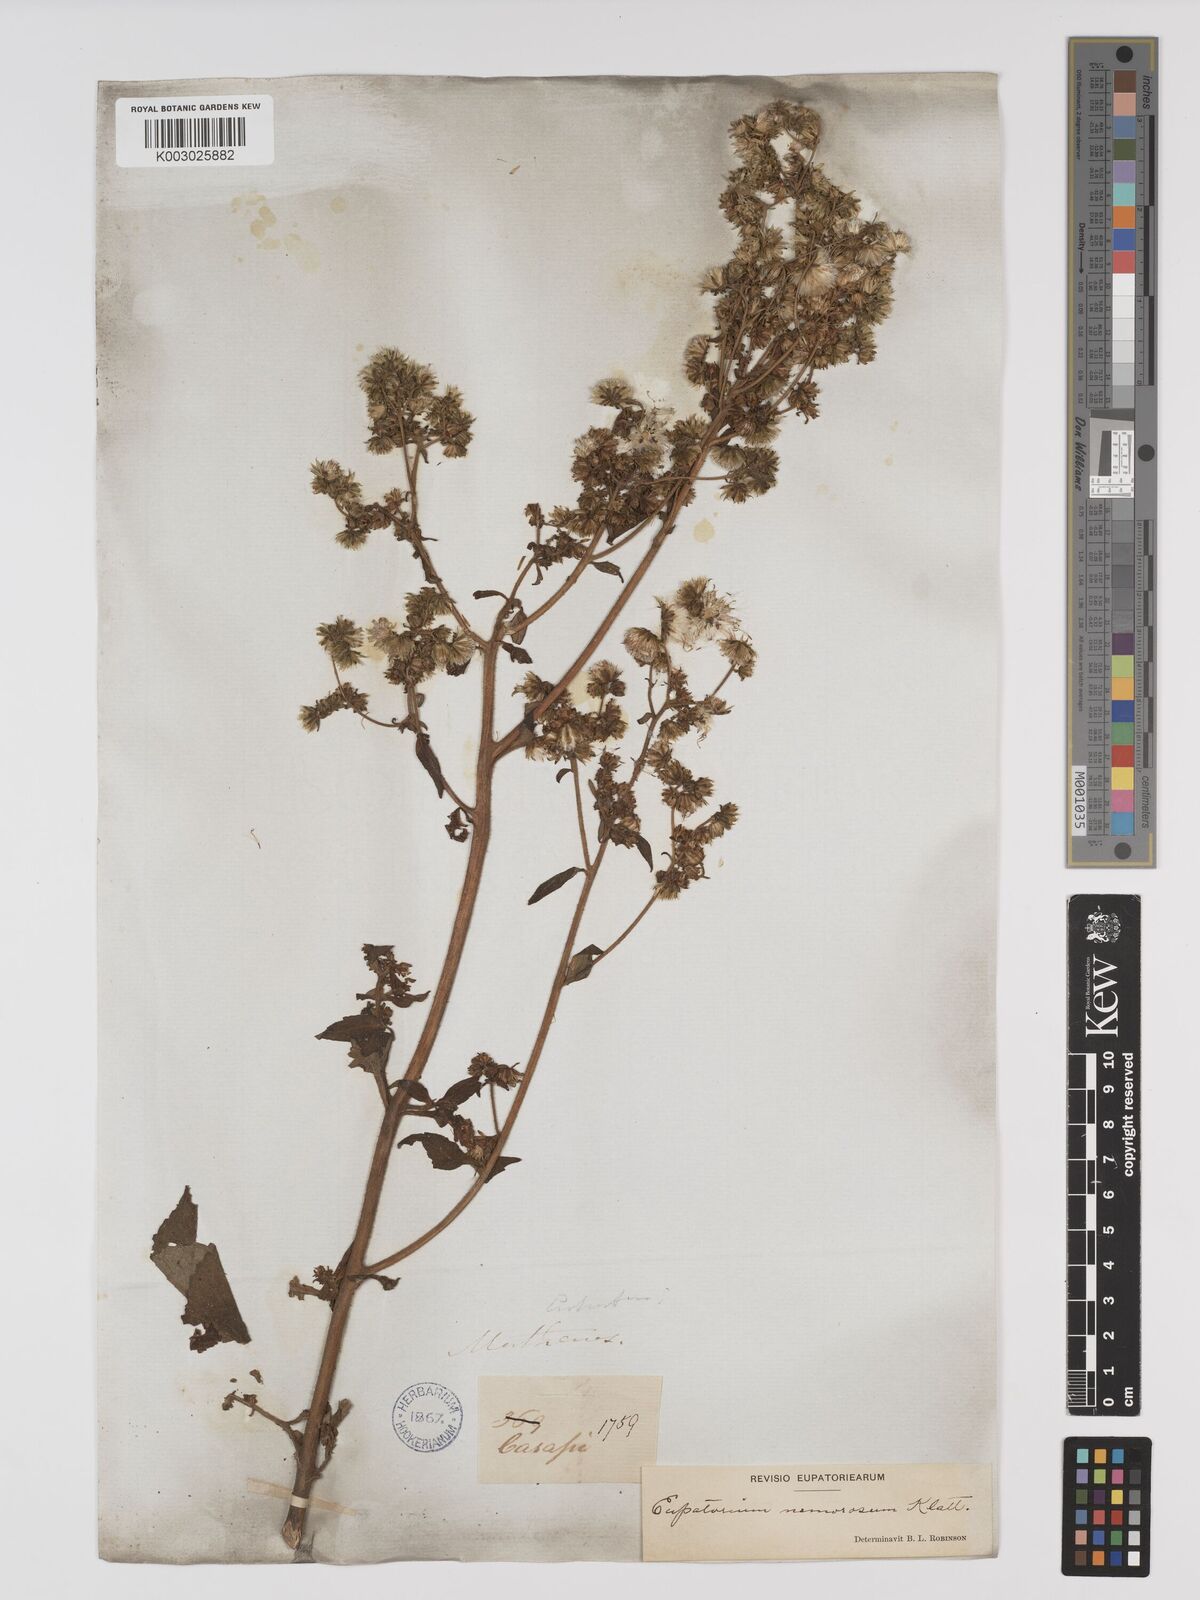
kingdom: Plantae
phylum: Tracheophyta
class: Magnoliopsida
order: Asterales
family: Asteraceae
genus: Polyanthina
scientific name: Polyanthina nemorosa
